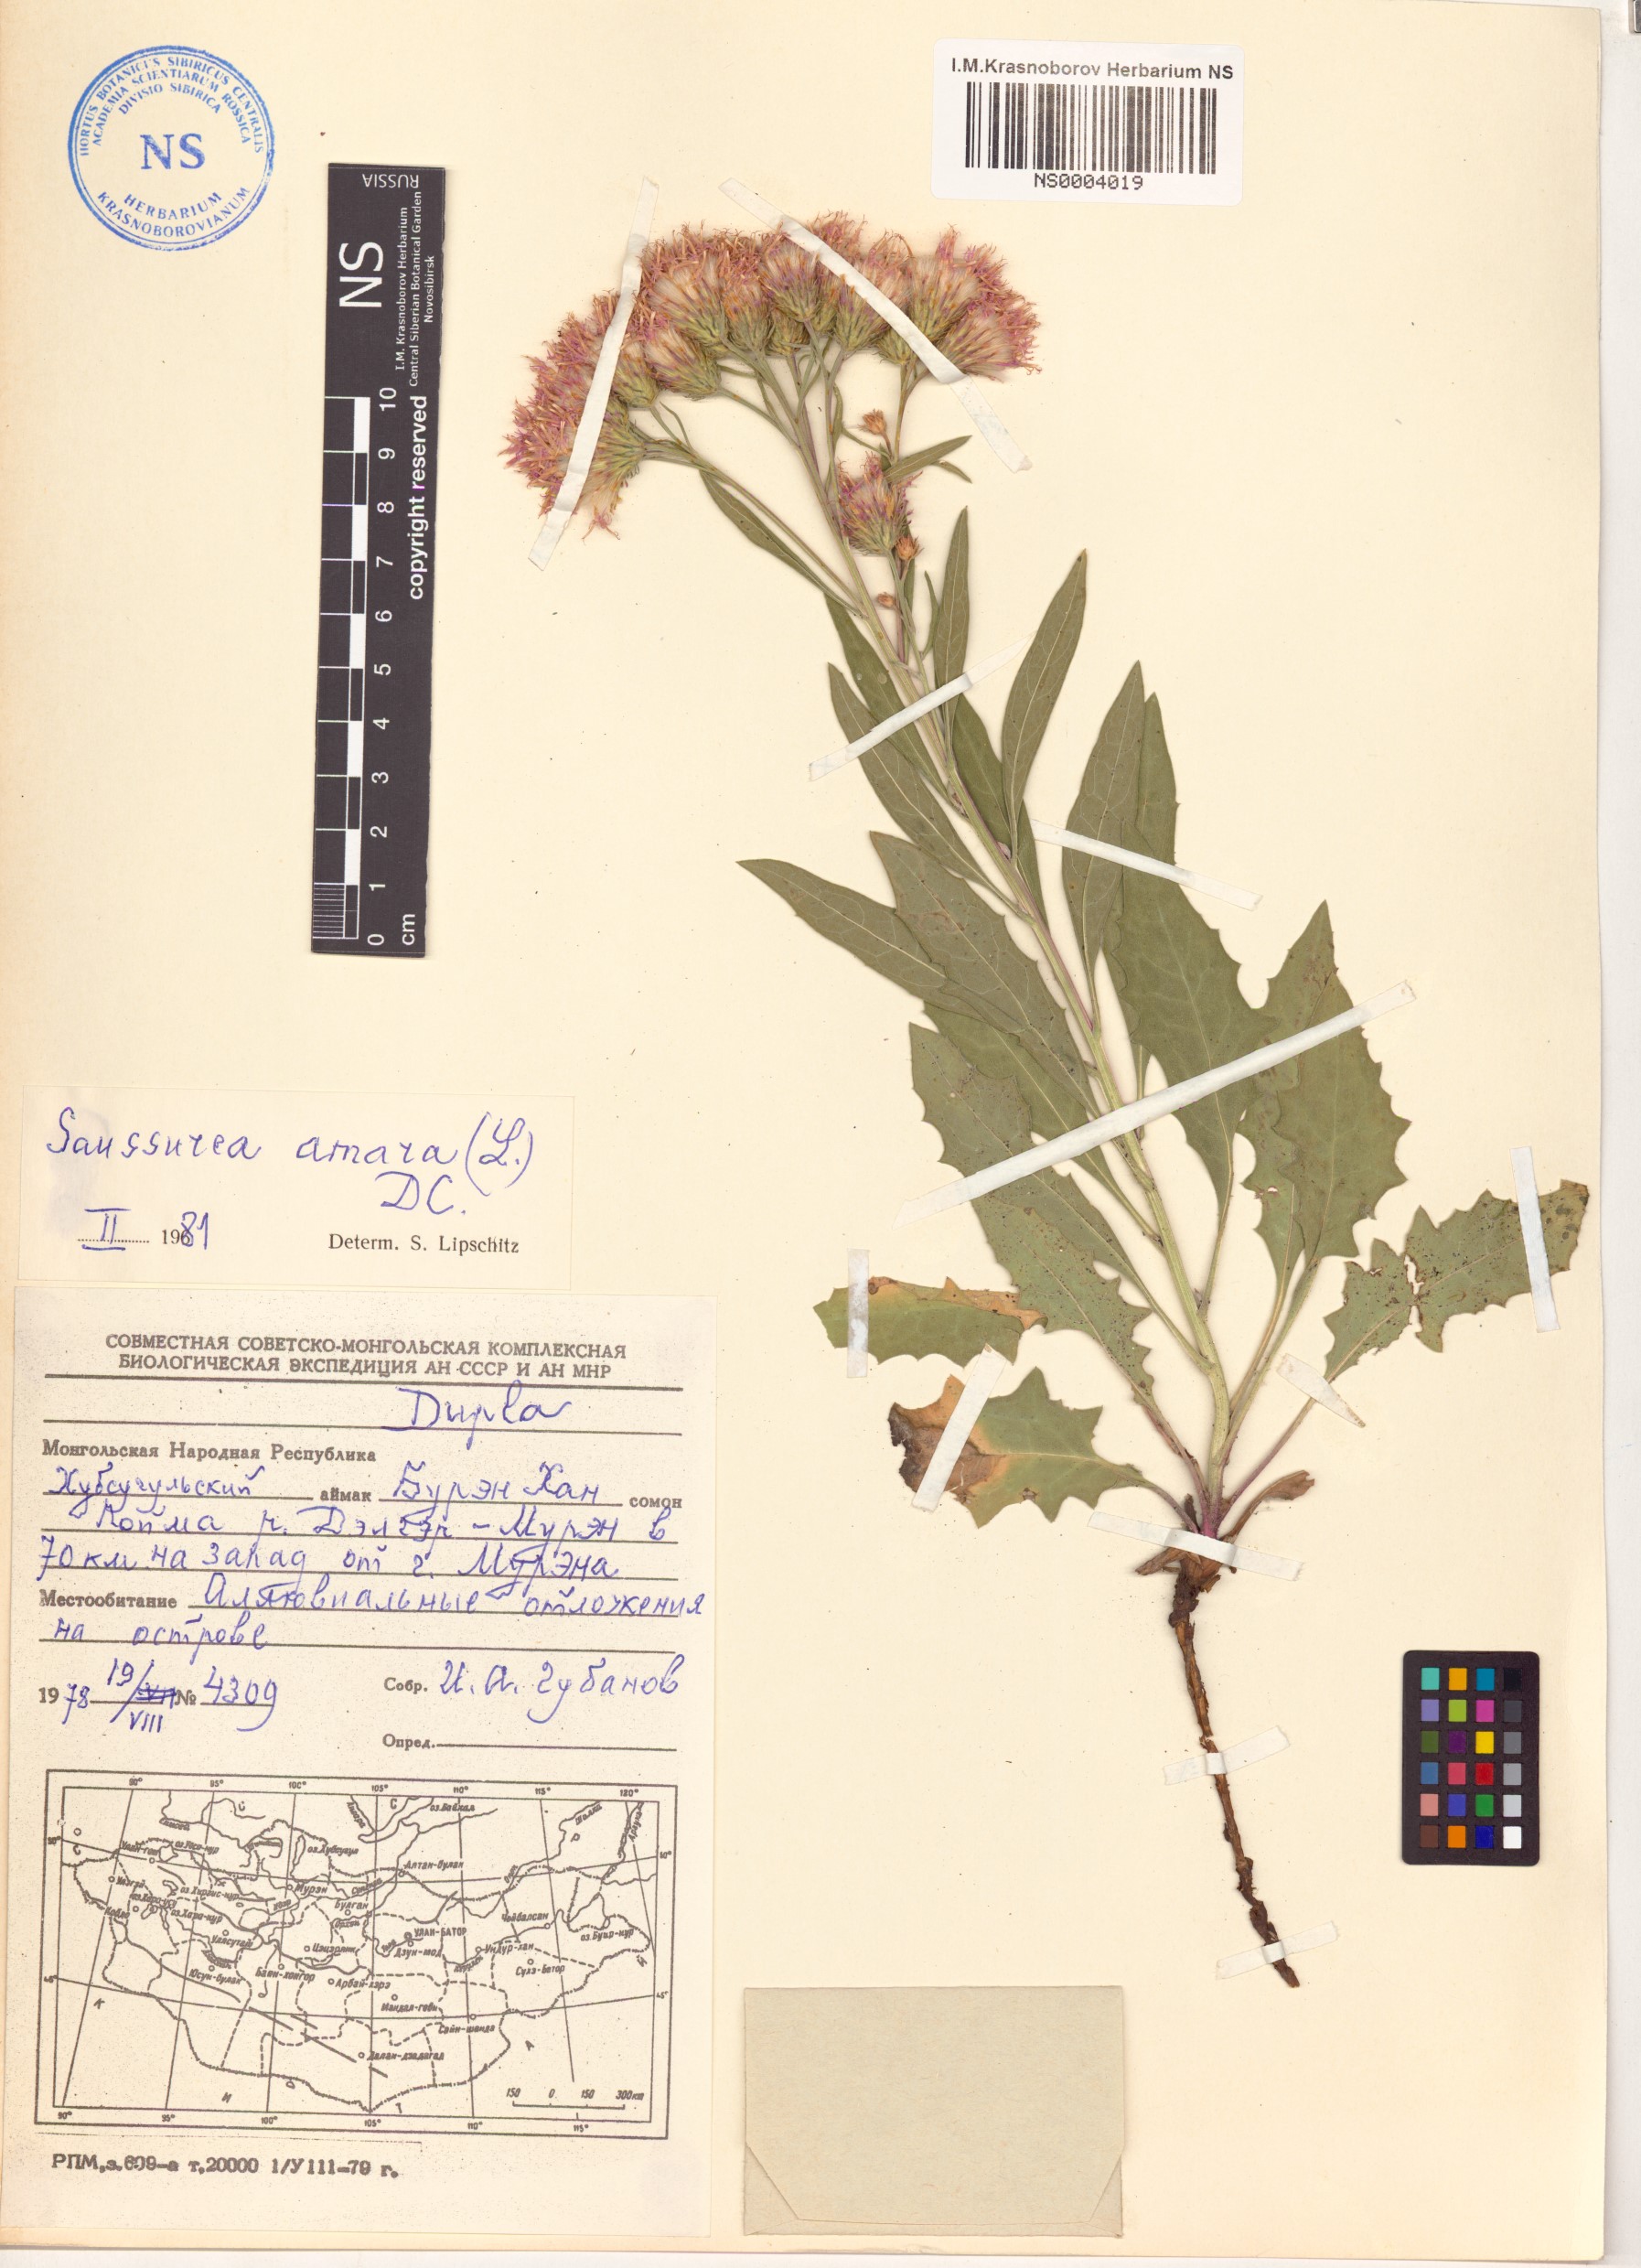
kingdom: Plantae
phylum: Tracheophyta
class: Magnoliopsida
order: Asterales
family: Asteraceae
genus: Saussurea
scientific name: Saussurea amara
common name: Alberta sawwort
